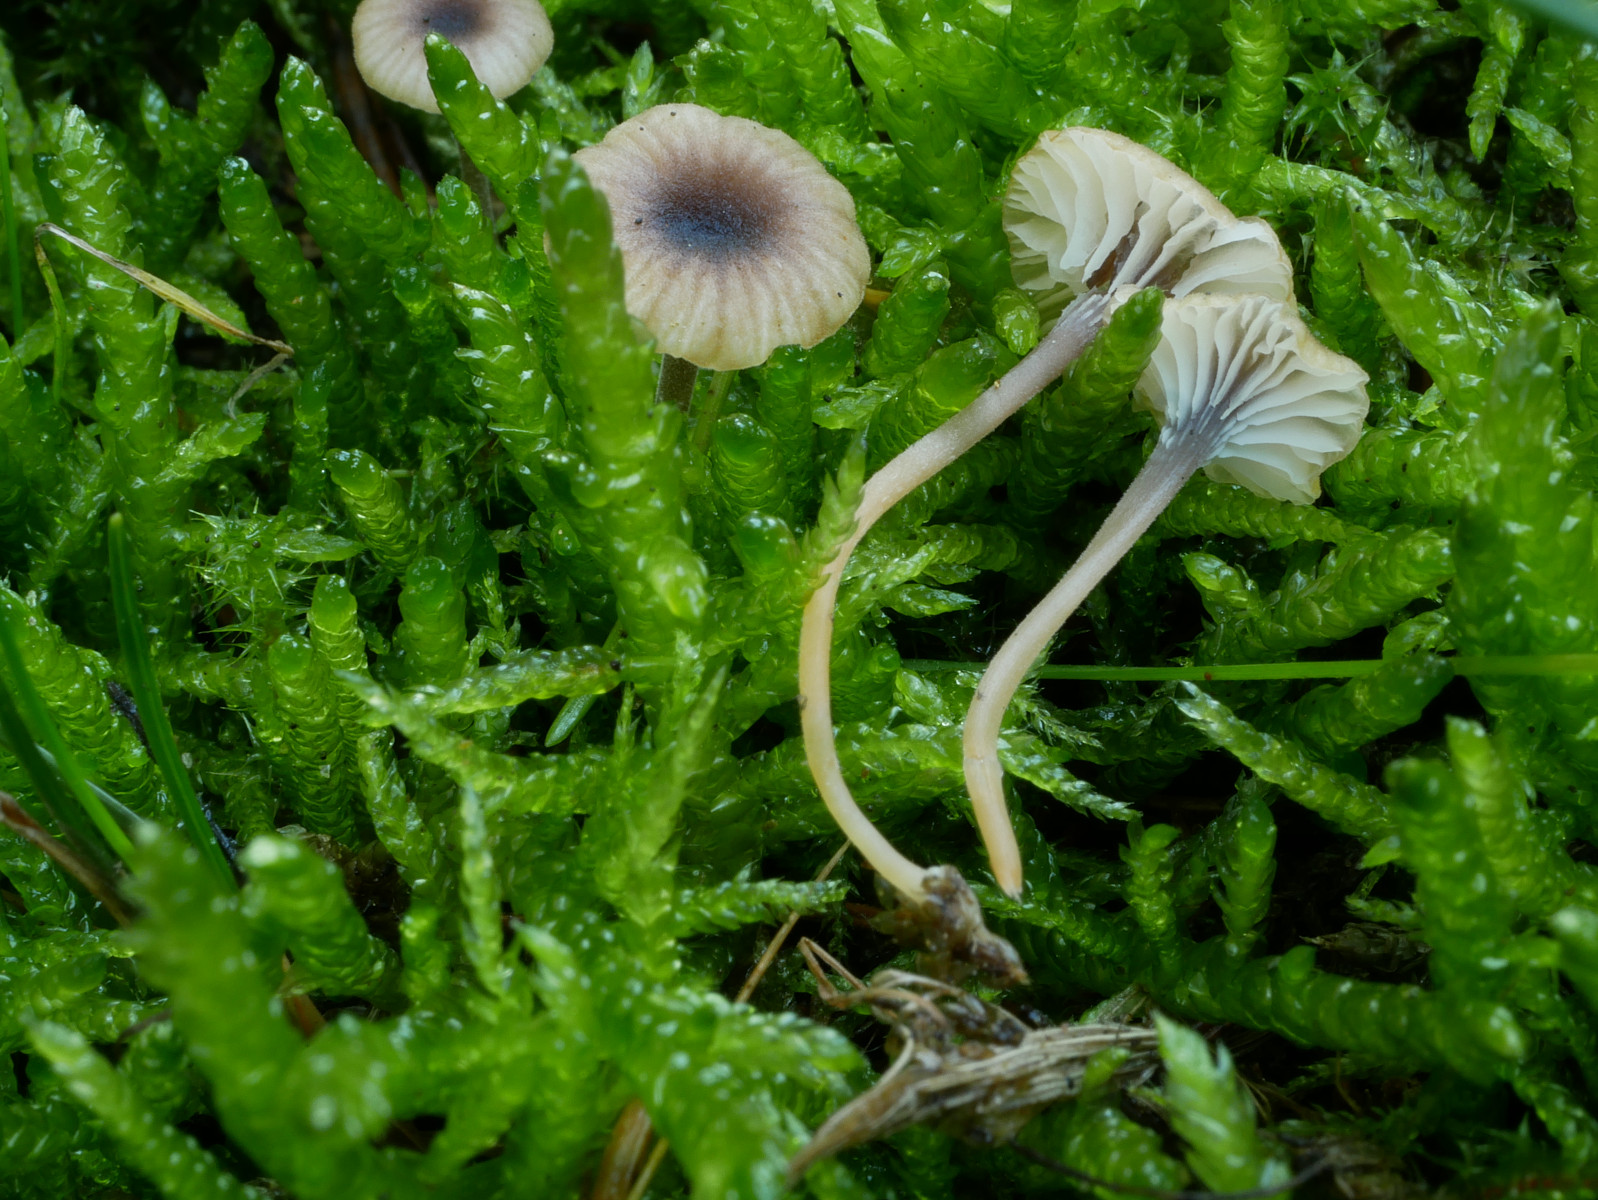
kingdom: Fungi
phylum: Basidiomycota
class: Agaricomycetes
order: Hymenochaetales
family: Rickenellaceae
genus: Rickenella
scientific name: Rickenella swartzii
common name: finstokket mosnavlehat
